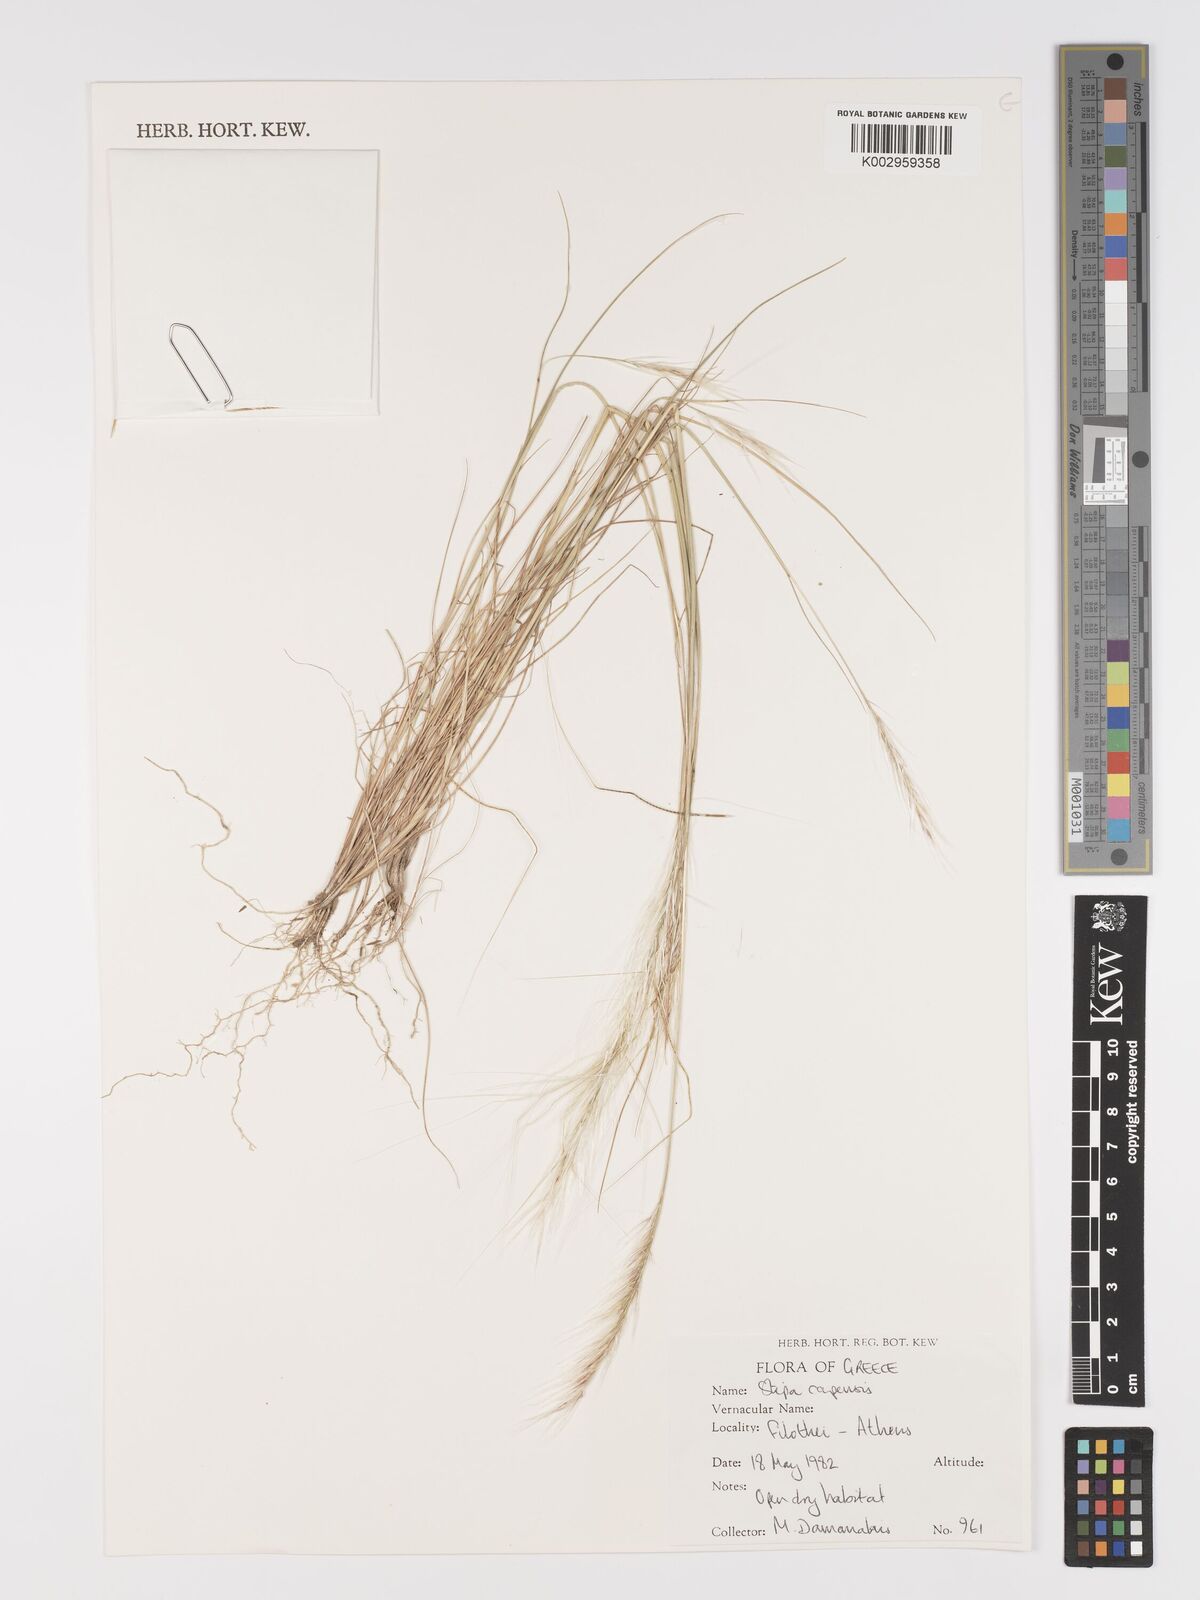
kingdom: Plantae
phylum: Tracheophyta
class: Liliopsida
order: Poales
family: Poaceae
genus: Stipellula
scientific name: Stipellula capensis
